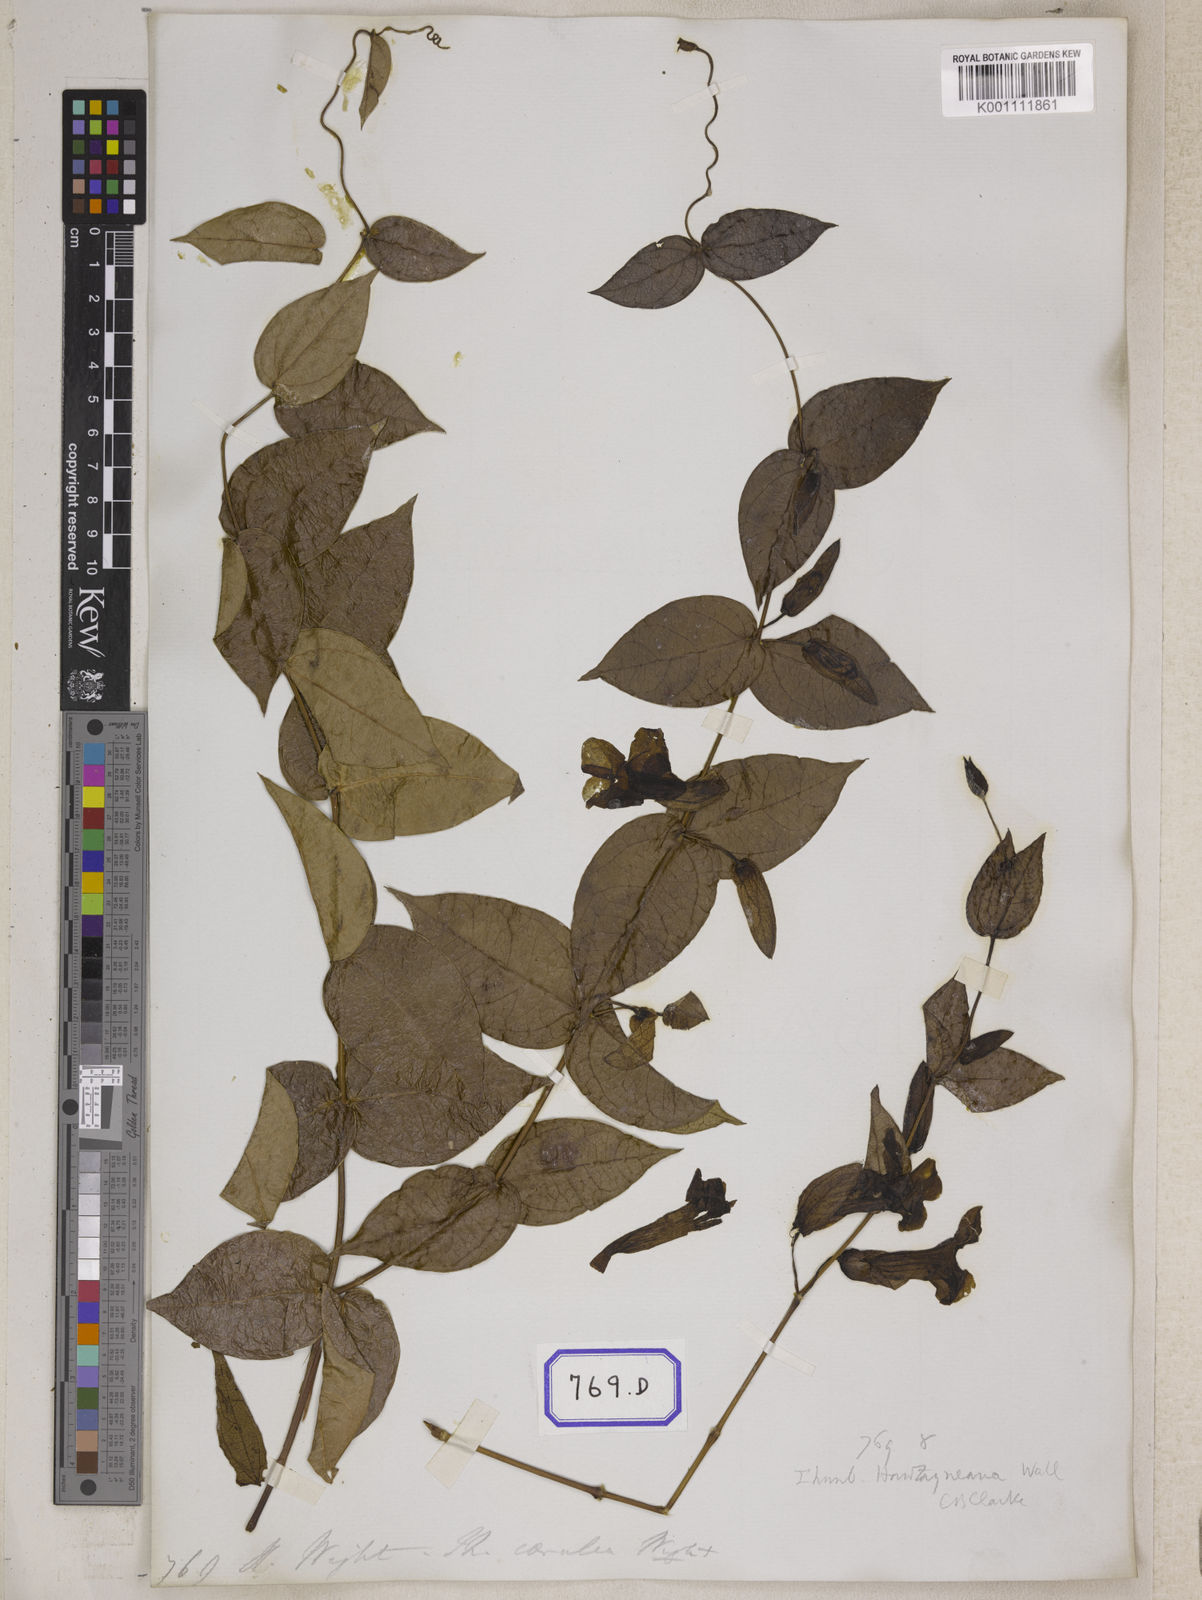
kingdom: Plantae
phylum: Tracheophyta
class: Magnoliopsida
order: Lamiales
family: Acanthaceae
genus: Meyenia
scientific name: Meyenia hawtayneana
